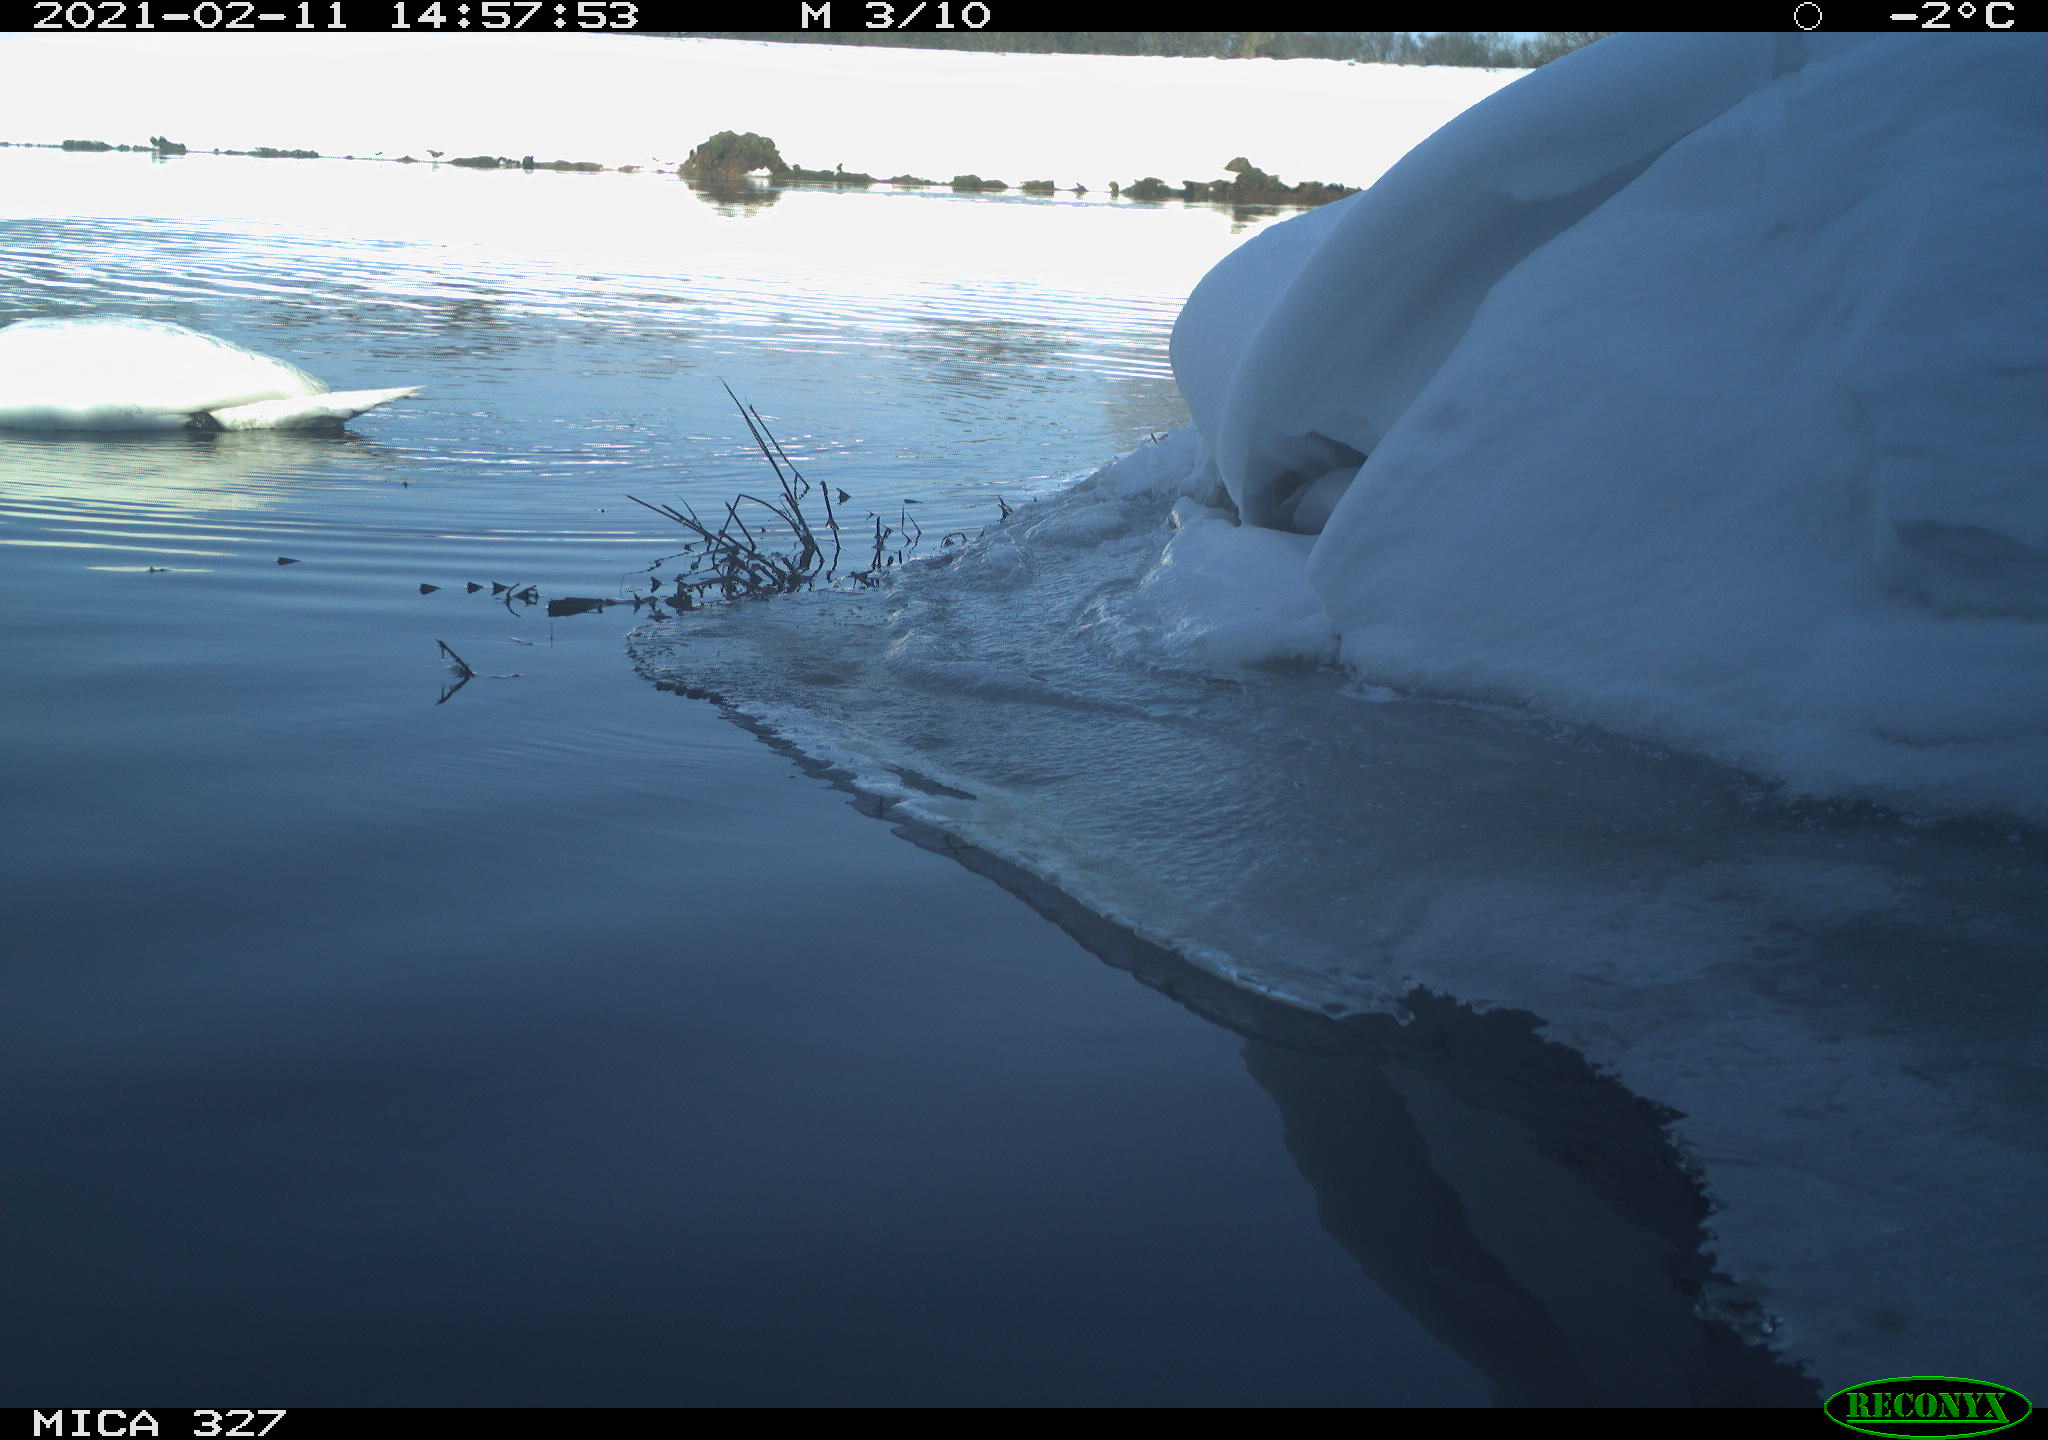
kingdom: Animalia
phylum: Chordata
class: Aves
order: Anseriformes
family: Anatidae
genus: Anas
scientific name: Anas
